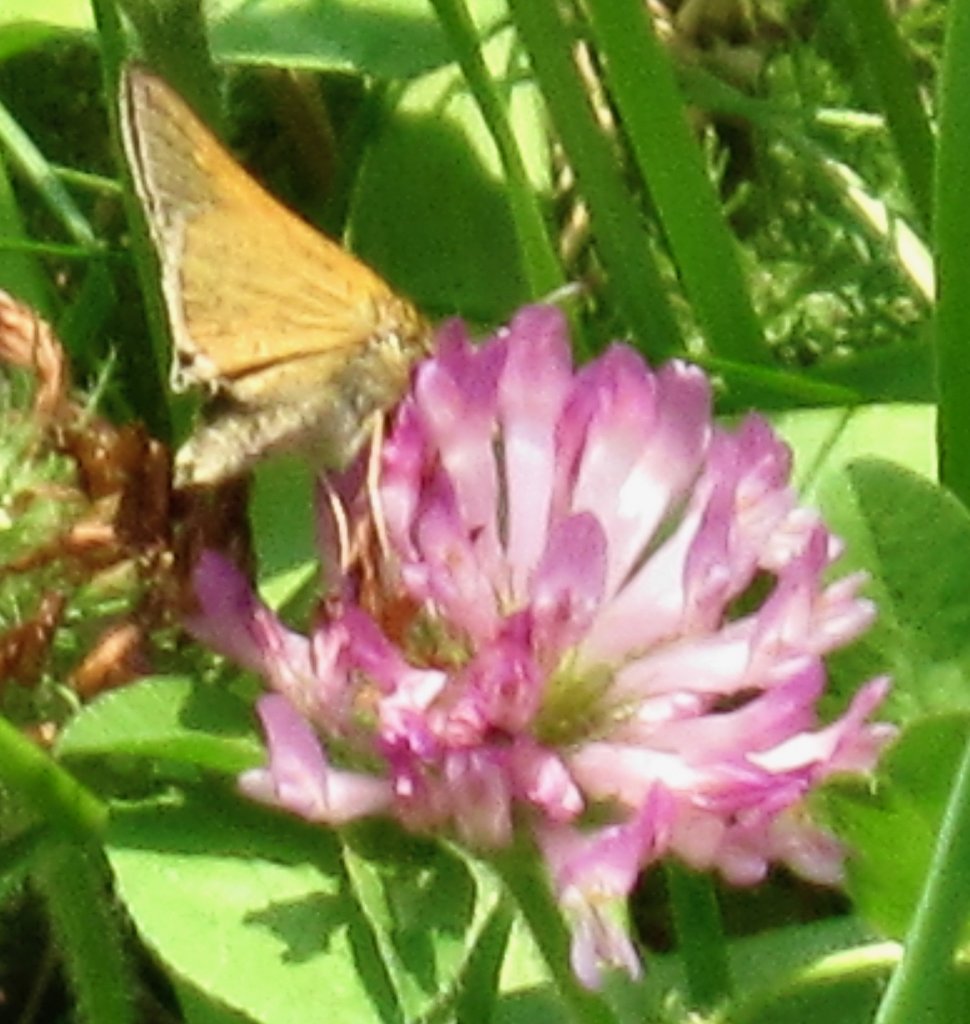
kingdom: Animalia
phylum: Arthropoda
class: Insecta
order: Lepidoptera
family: Hesperiidae
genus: Polites
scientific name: Polites themistocles
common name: Tawny-edged Skipper
